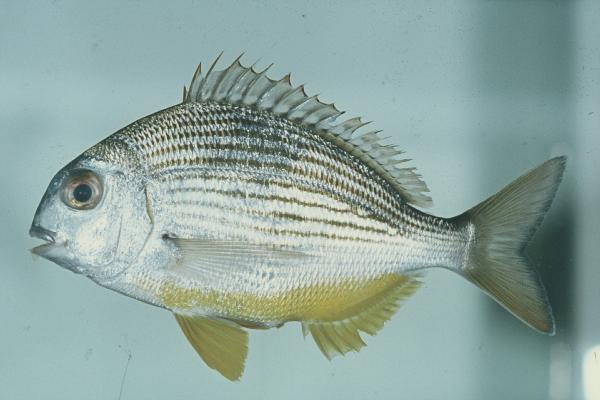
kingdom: Animalia
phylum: Chordata
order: Perciformes
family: Sparidae
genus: Rhabdosargus
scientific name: Rhabdosargus thorpei
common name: Bigeye stumpnose
